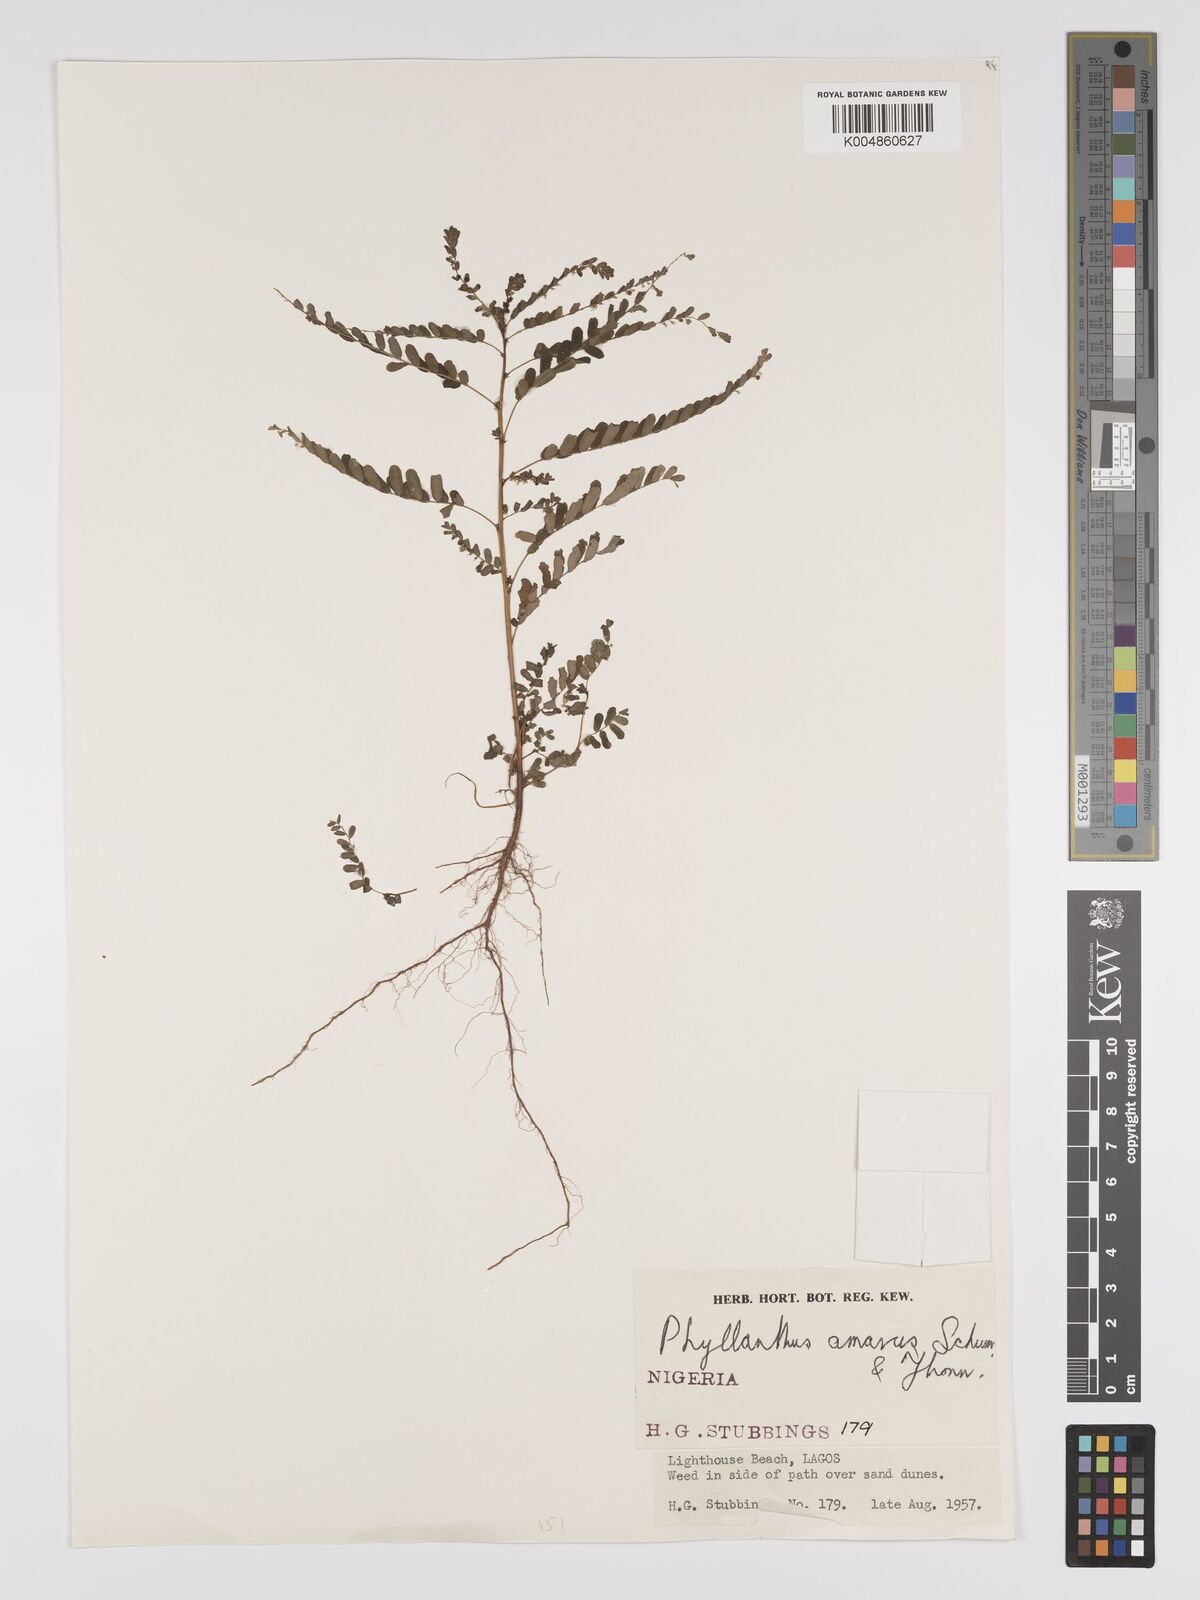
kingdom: Plantae
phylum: Tracheophyta
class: Magnoliopsida
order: Malpighiales
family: Phyllanthaceae
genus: Phyllanthus
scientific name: Phyllanthus amarus
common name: Carry me seed
